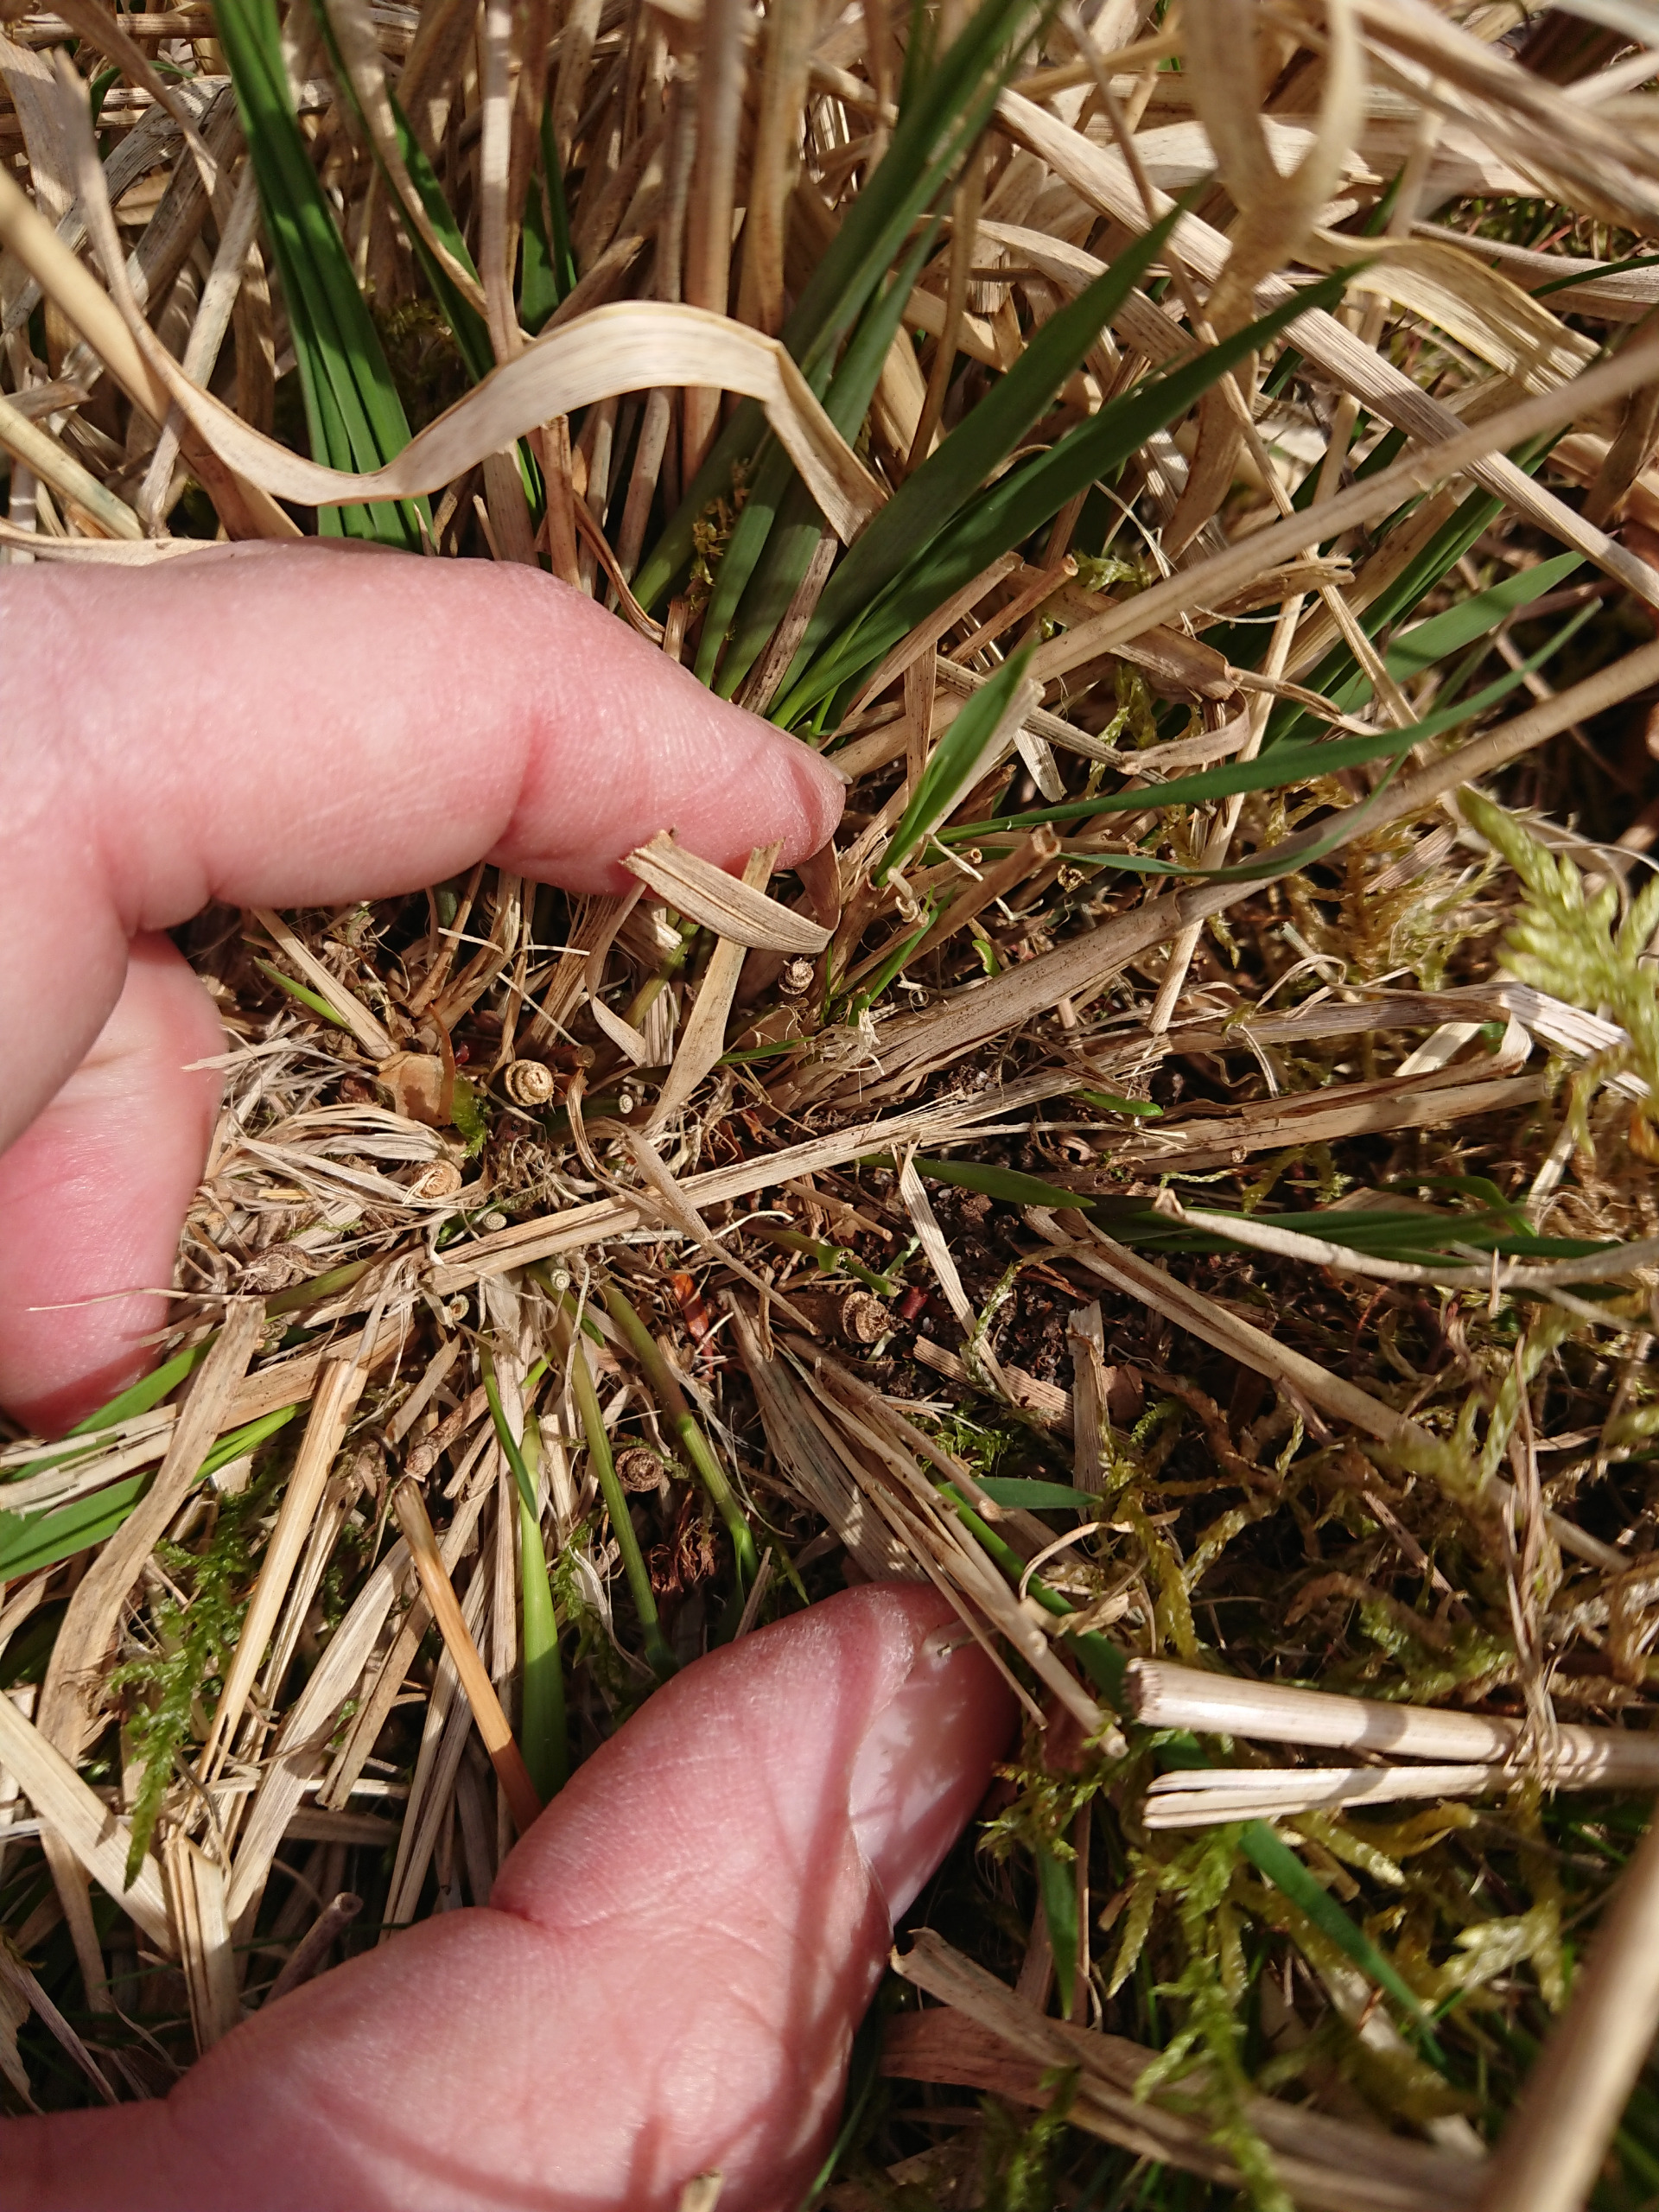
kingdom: Plantae
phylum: Tracheophyta
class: Liliopsida
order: Poales
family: Poaceae
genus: Molinia
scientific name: Molinia caerulea
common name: Blåtop
